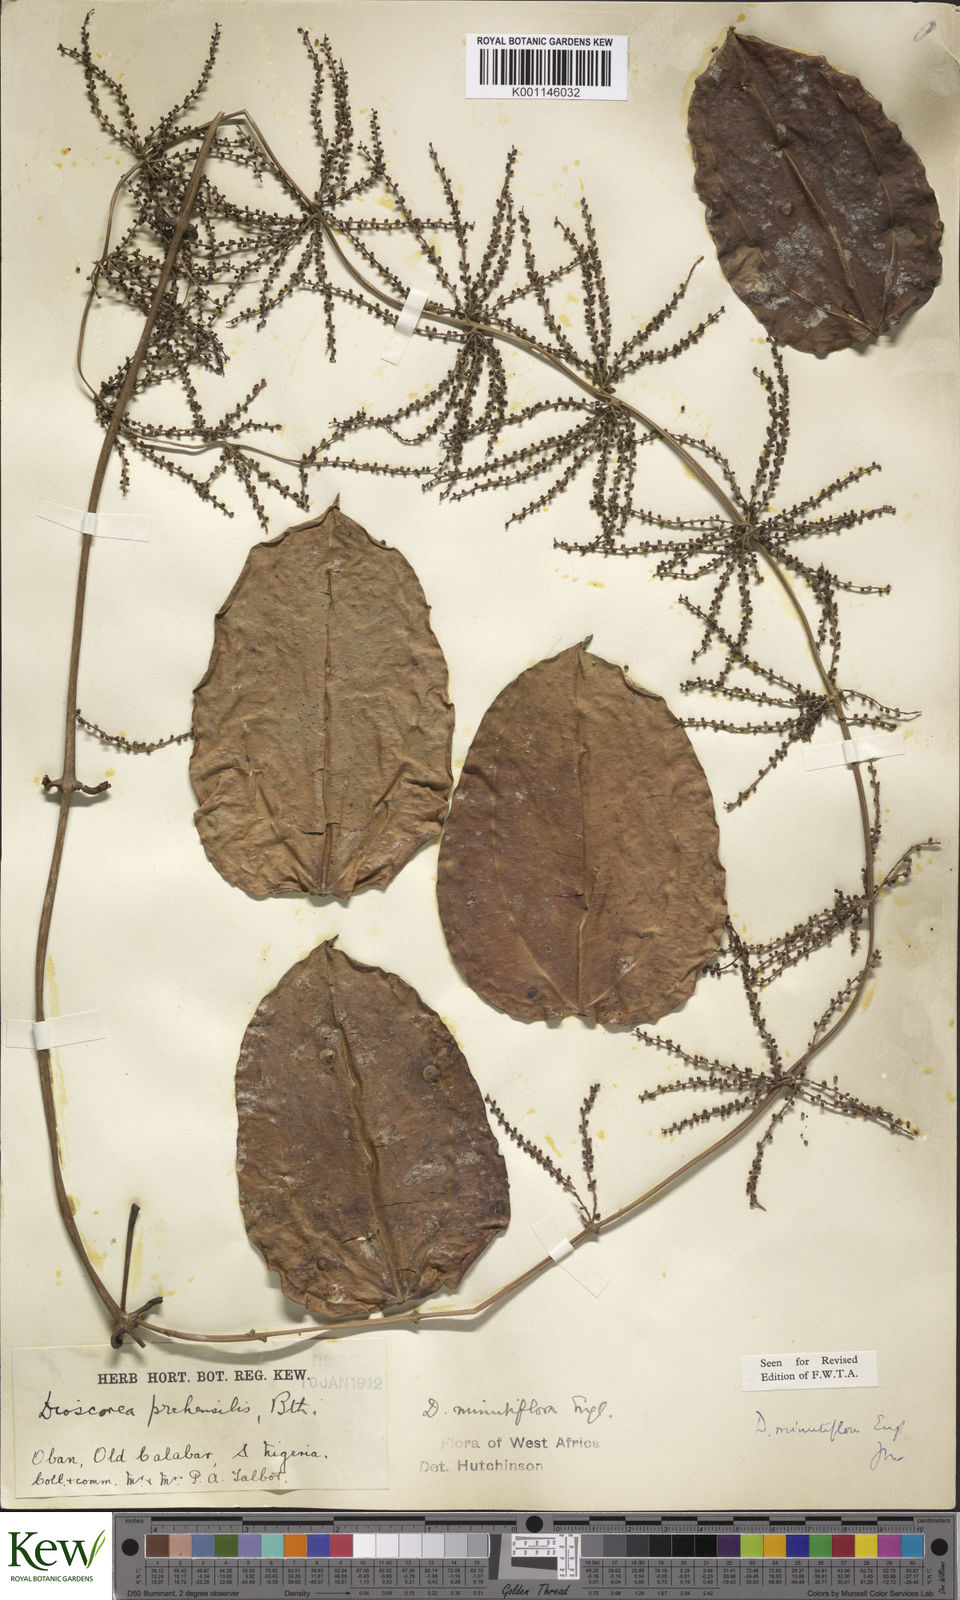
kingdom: Plantae
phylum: Tracheophyta
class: Liliopsida
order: Dioscoreales
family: Dioscoreaceae
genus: Dioscorea
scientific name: Dioscorea minutiflora
